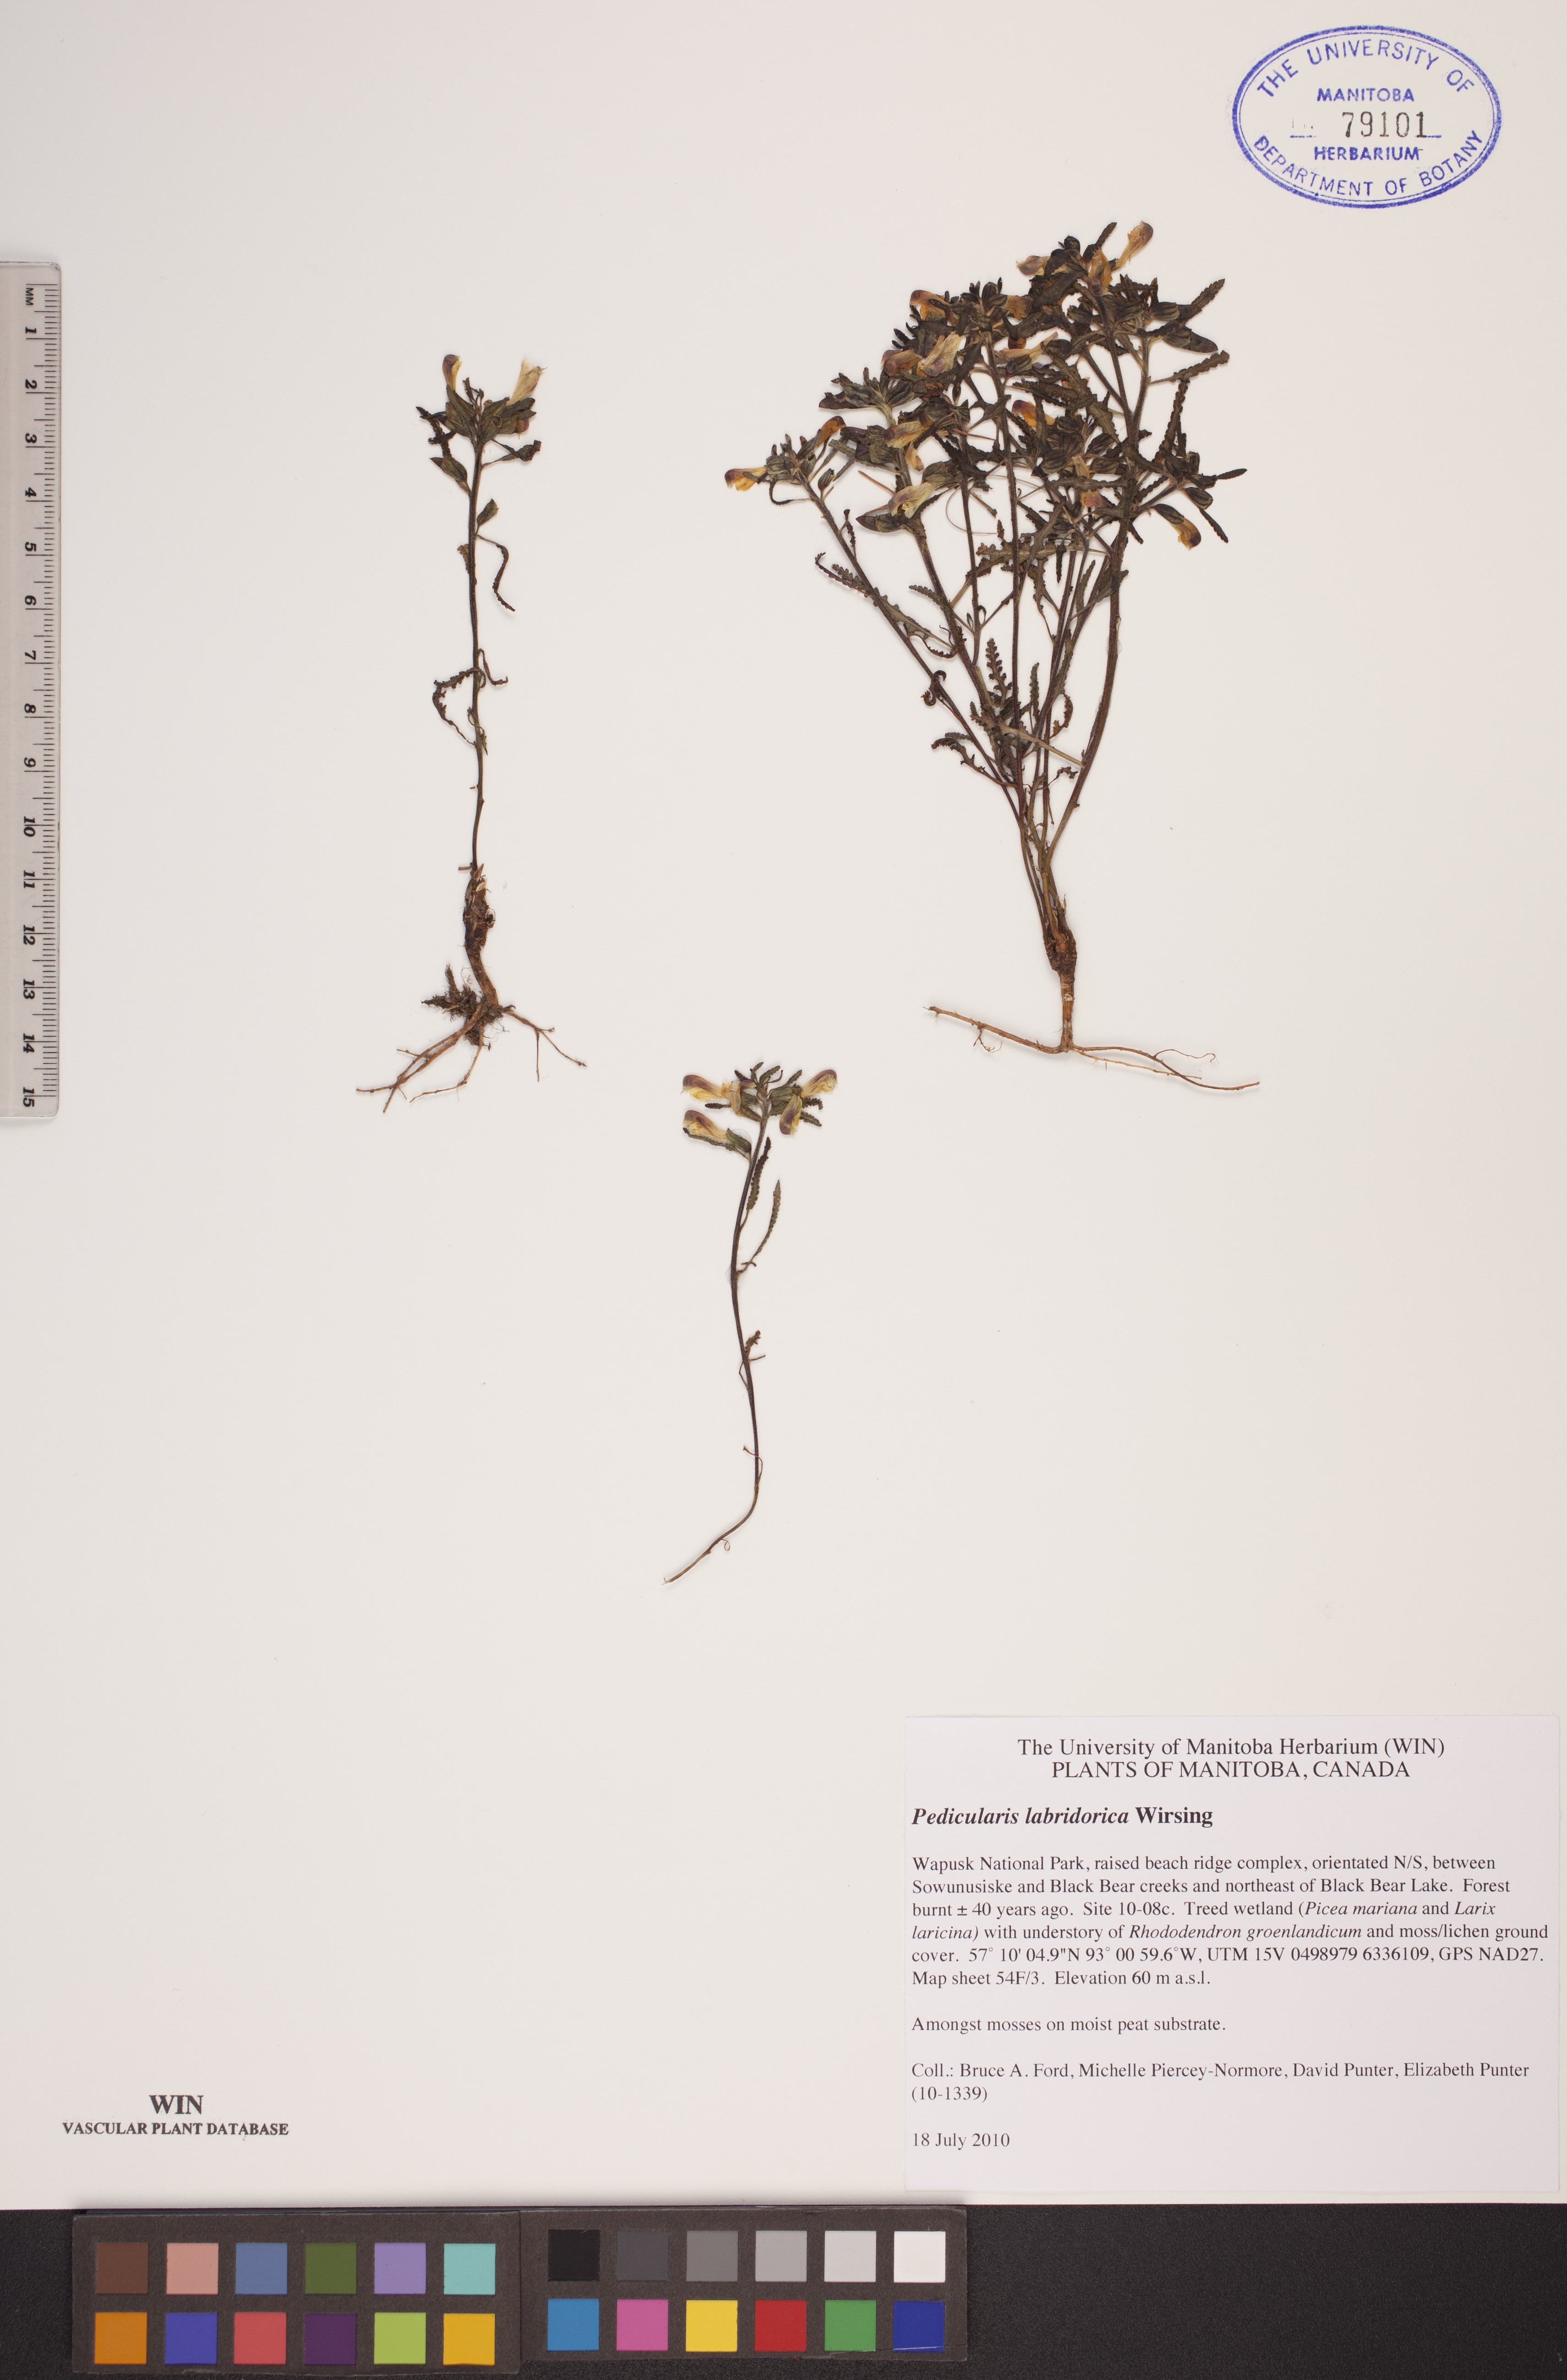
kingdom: Plantae
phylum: Tracheophyta
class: Magnoliopsida
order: Lamiales
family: Orobanchaceae
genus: Pedicularis
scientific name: Pedicularis labradorica
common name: Labrador lousewort
